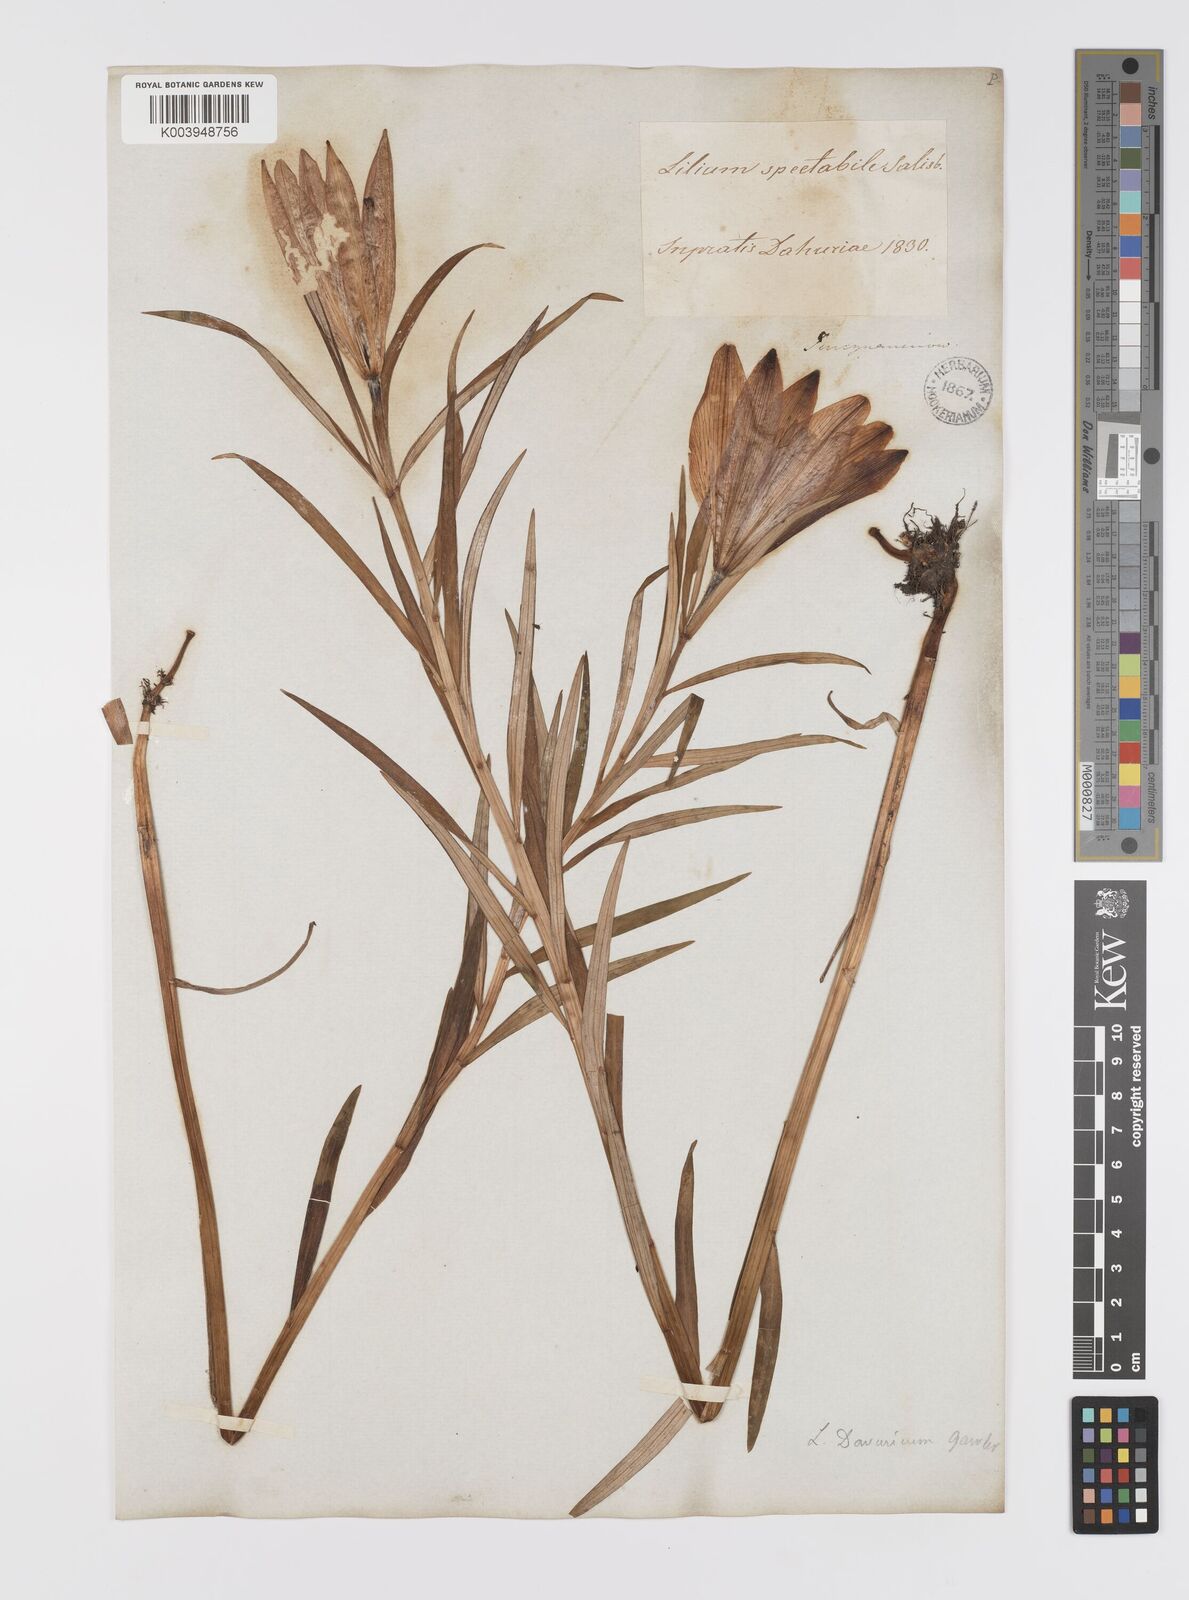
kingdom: Plantae
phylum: Tracheophyta
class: Liliopsida
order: Liliales
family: Liliaceae
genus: Lilium
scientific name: Lilium pensylvanicum
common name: Candlestick lily
